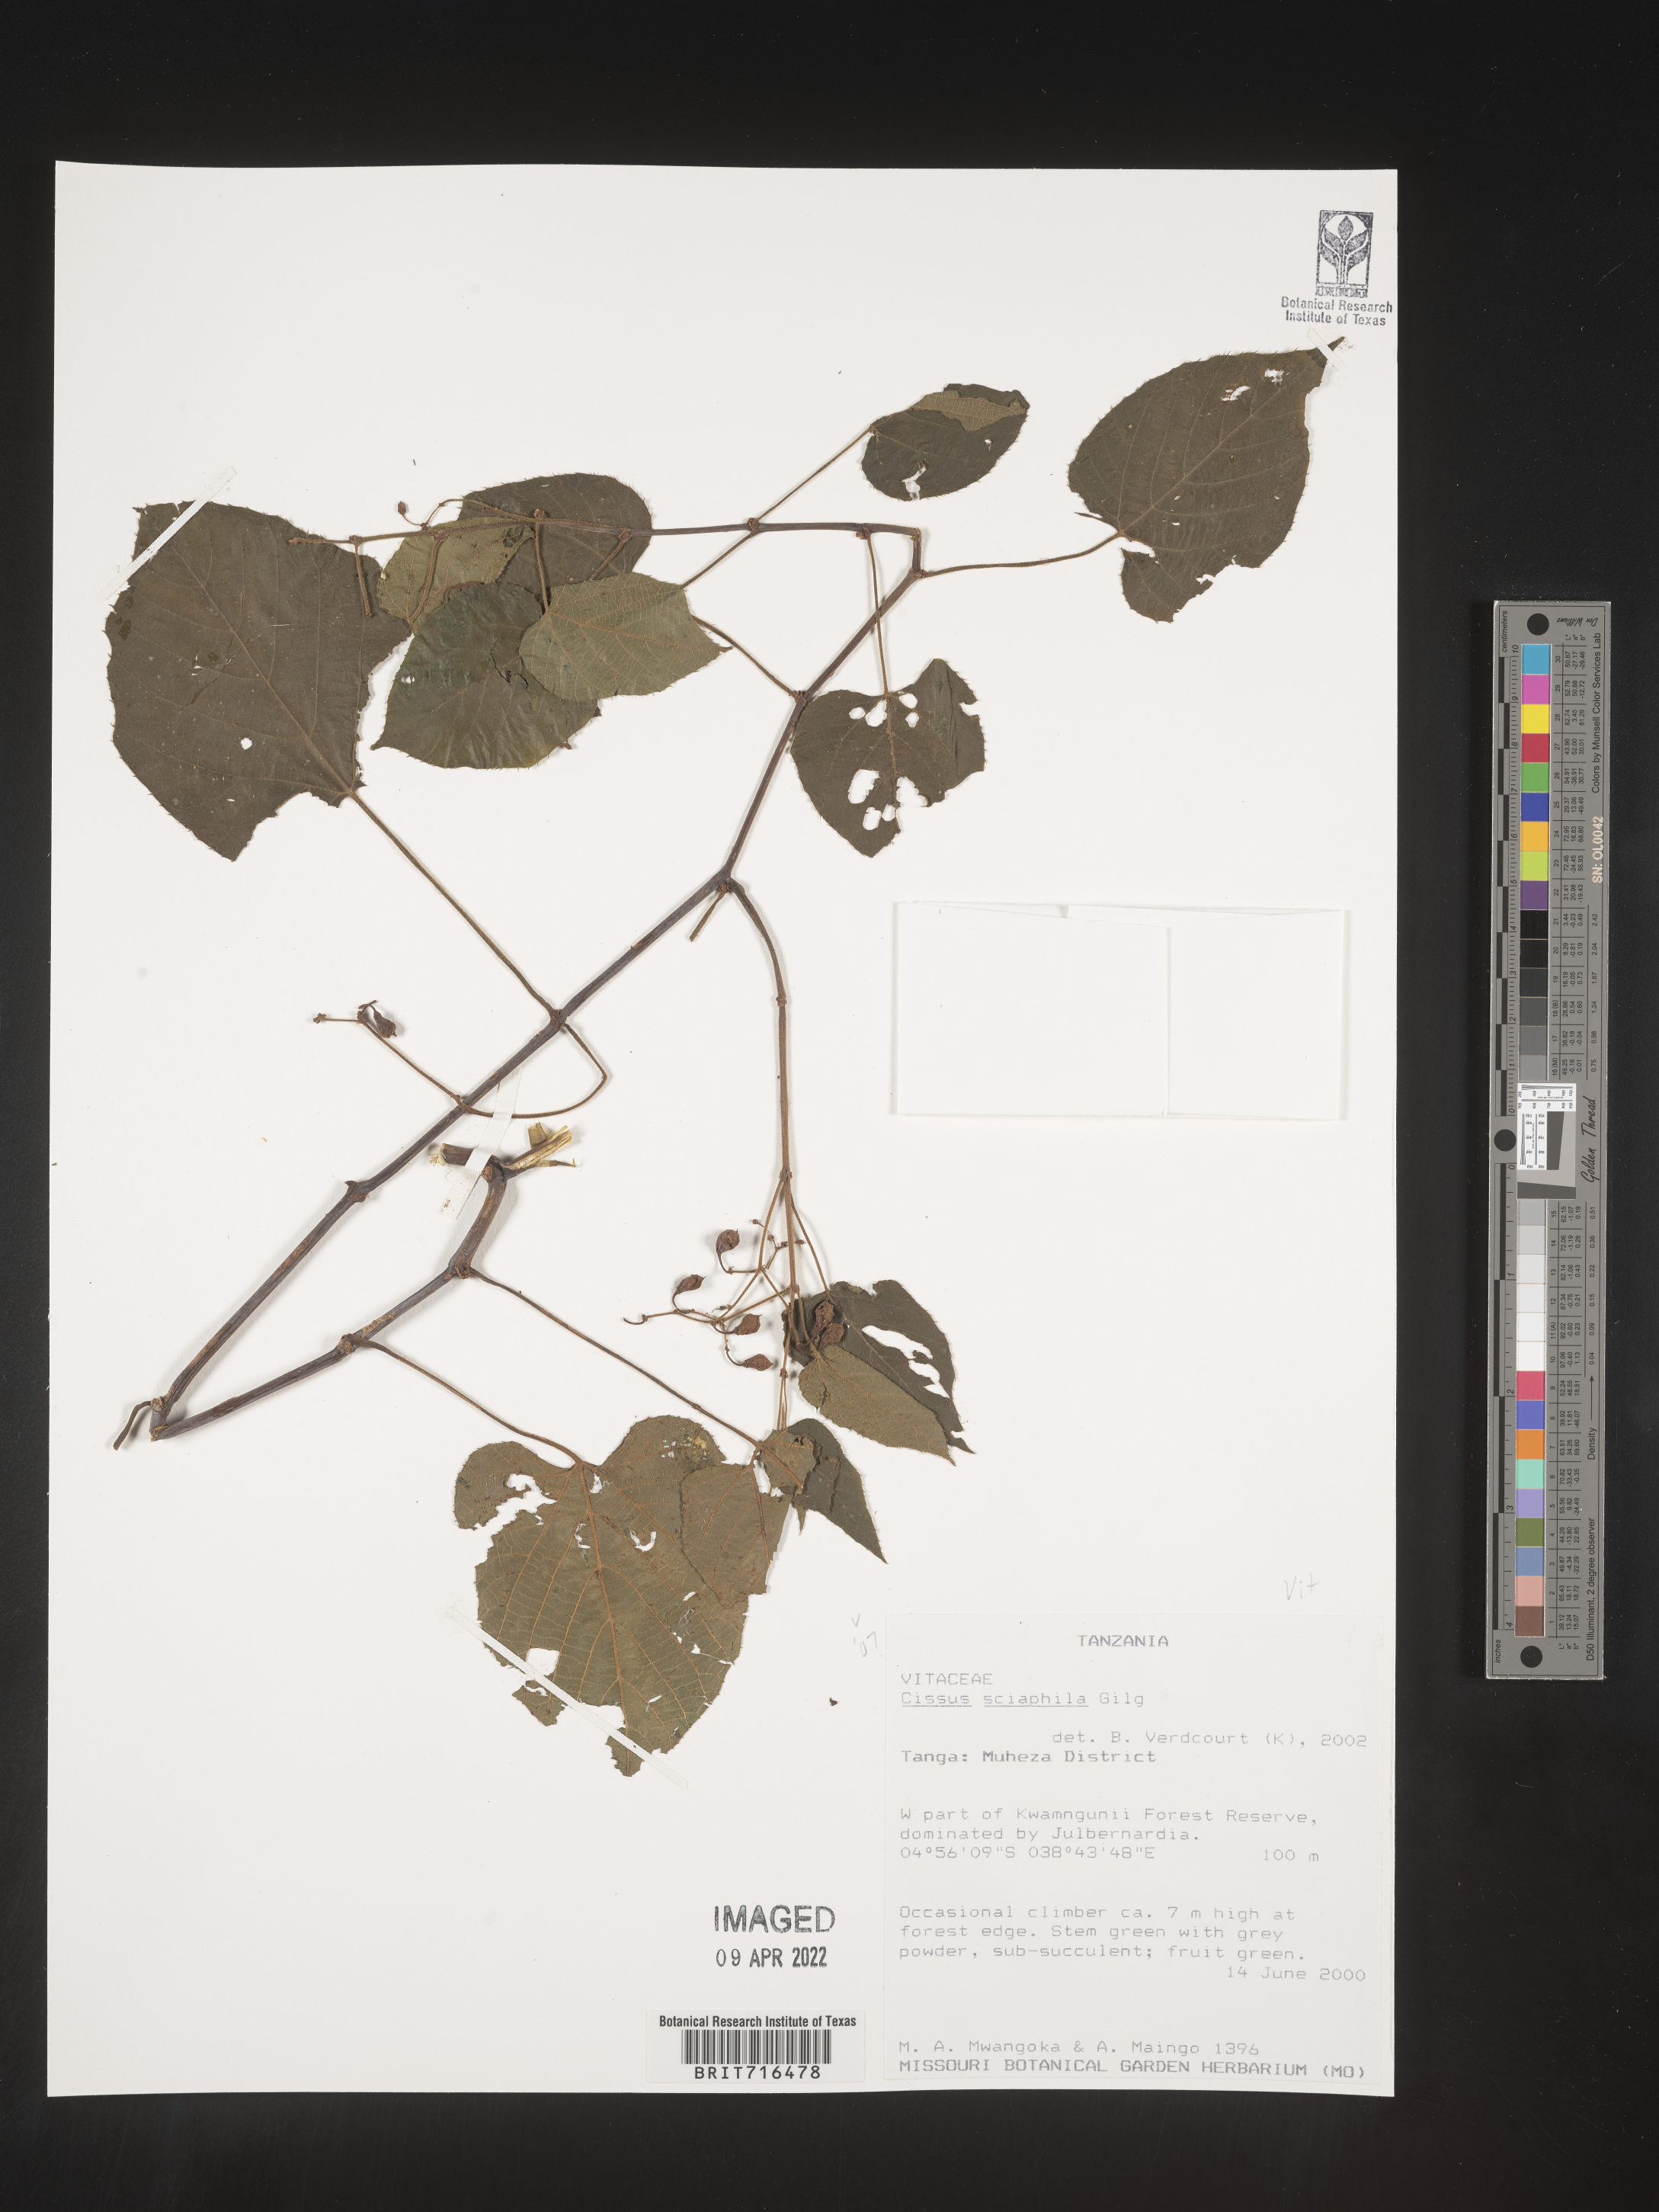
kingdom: Plantae
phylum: Tracheophyta
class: Magnoliopsida
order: Vitales
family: Vitaceae
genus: Cissus
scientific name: Cissus
